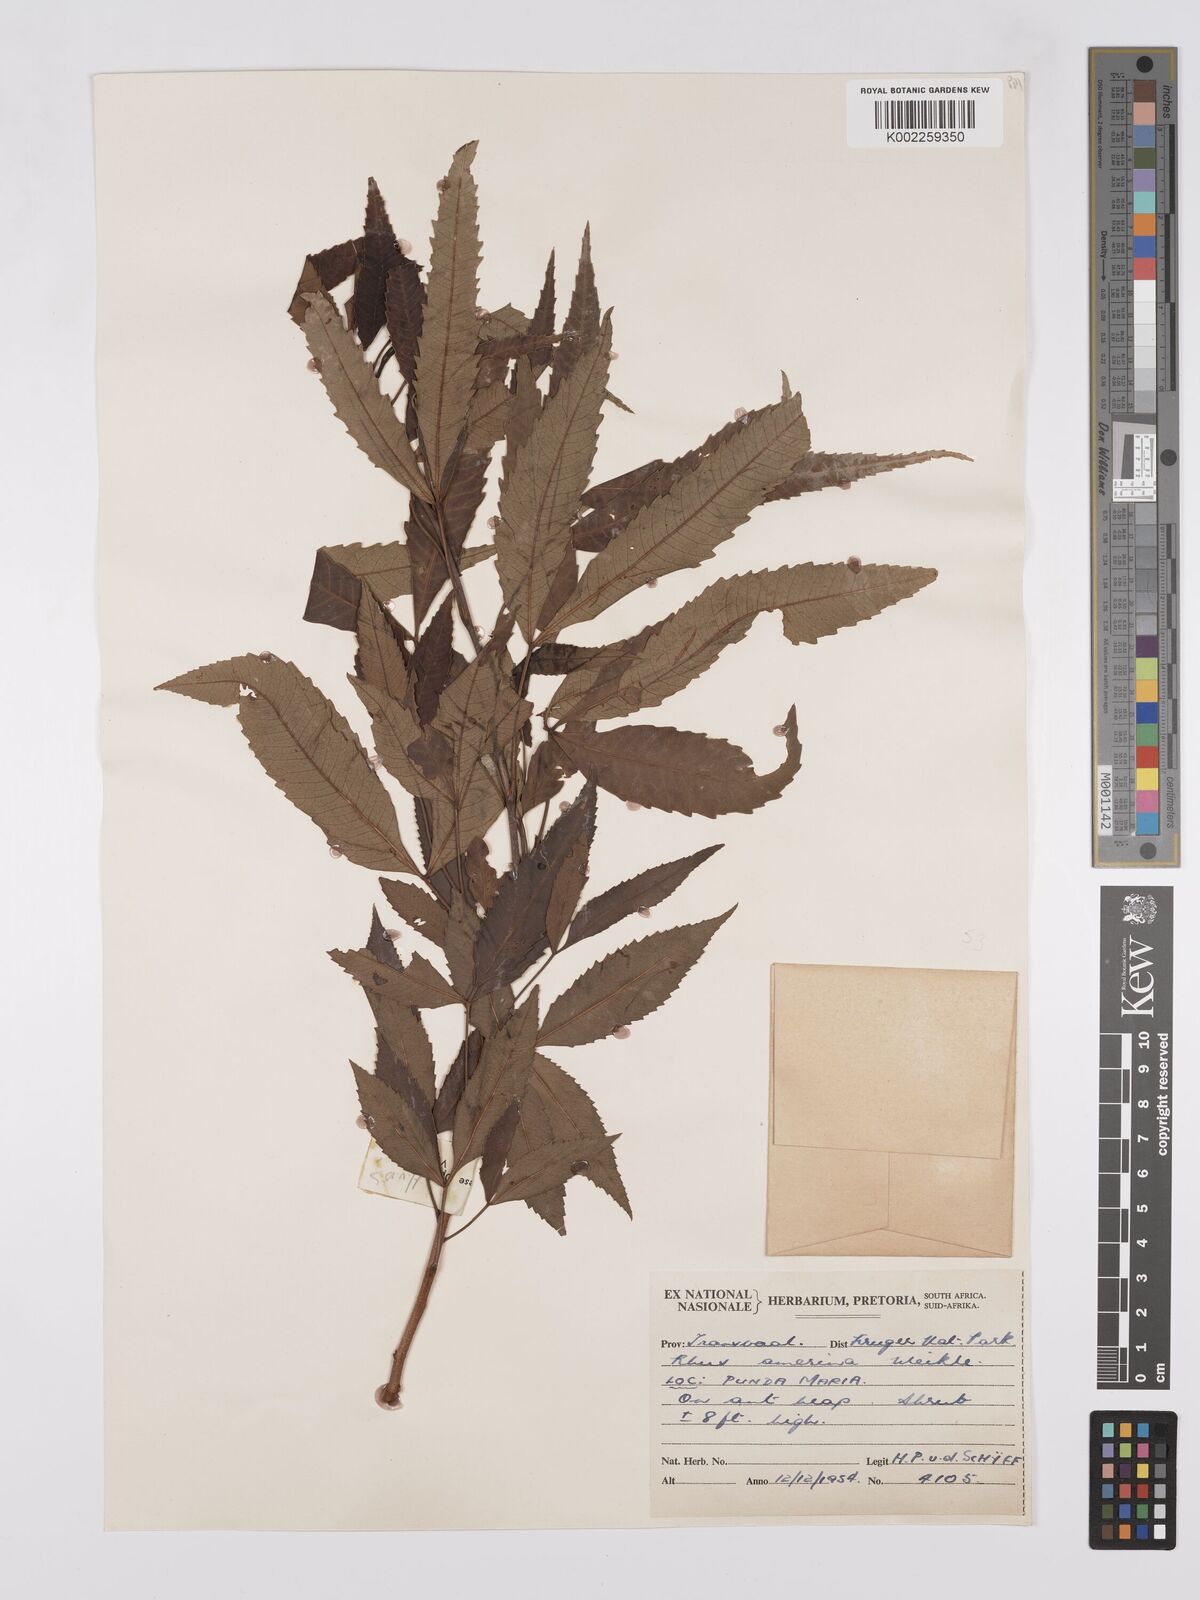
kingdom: Plantae
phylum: Tracheophyta
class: Magnoliopsida
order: Sapindales
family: Anacardiaceae
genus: Searsia
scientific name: Searsia leptodictya
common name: Mountain karee
